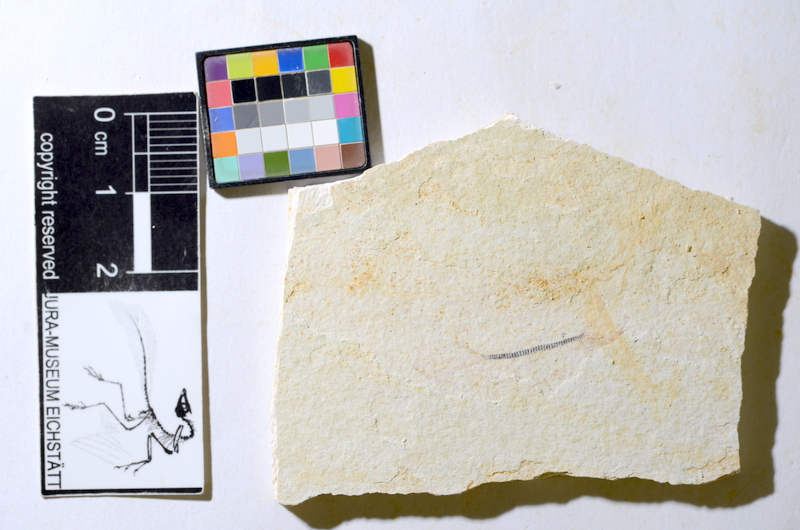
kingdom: Animalia
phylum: Chordata
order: Salmoniformes
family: Orthogonikleithridae
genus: Orthogonikleithrus
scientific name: Orthogonikleithrus hoelli
